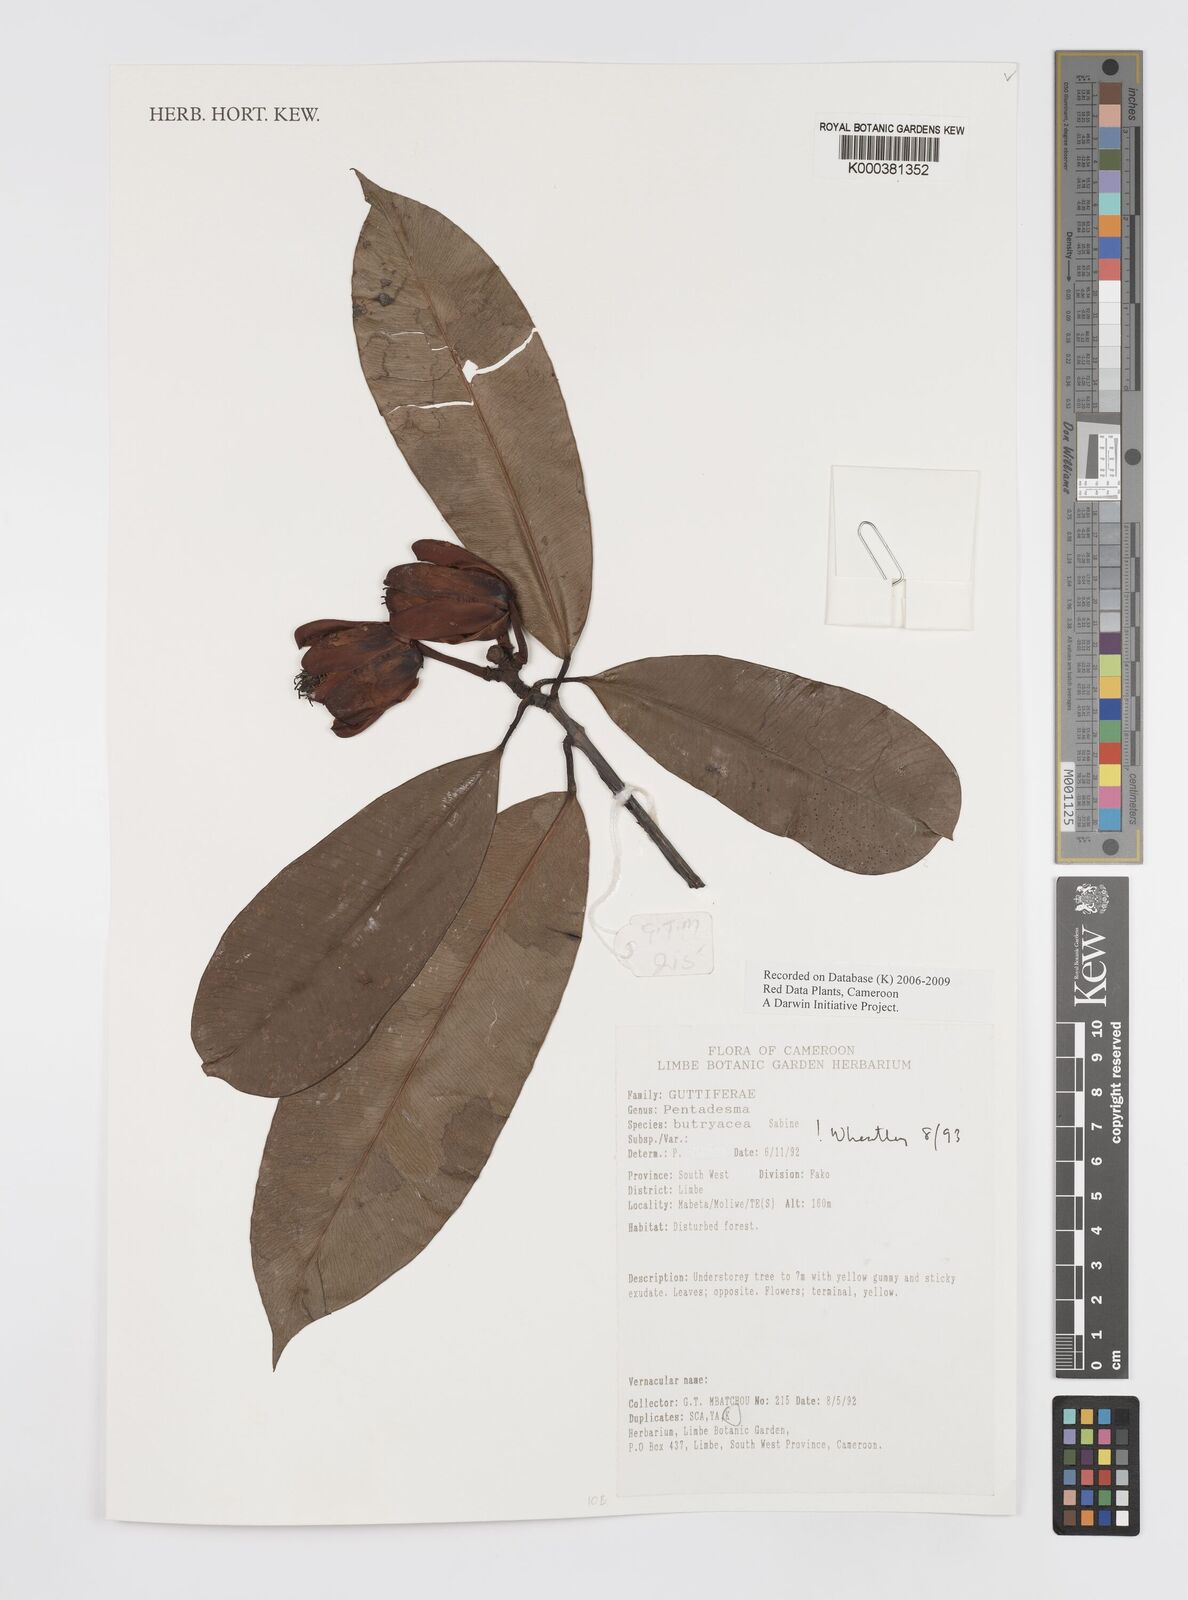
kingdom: Plantae
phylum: Tracheophyta
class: Magnoliopsida
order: Malpighiales
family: Clusiaceae
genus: Pentadesma
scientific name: Pentadesma butyracea
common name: Buttertree
